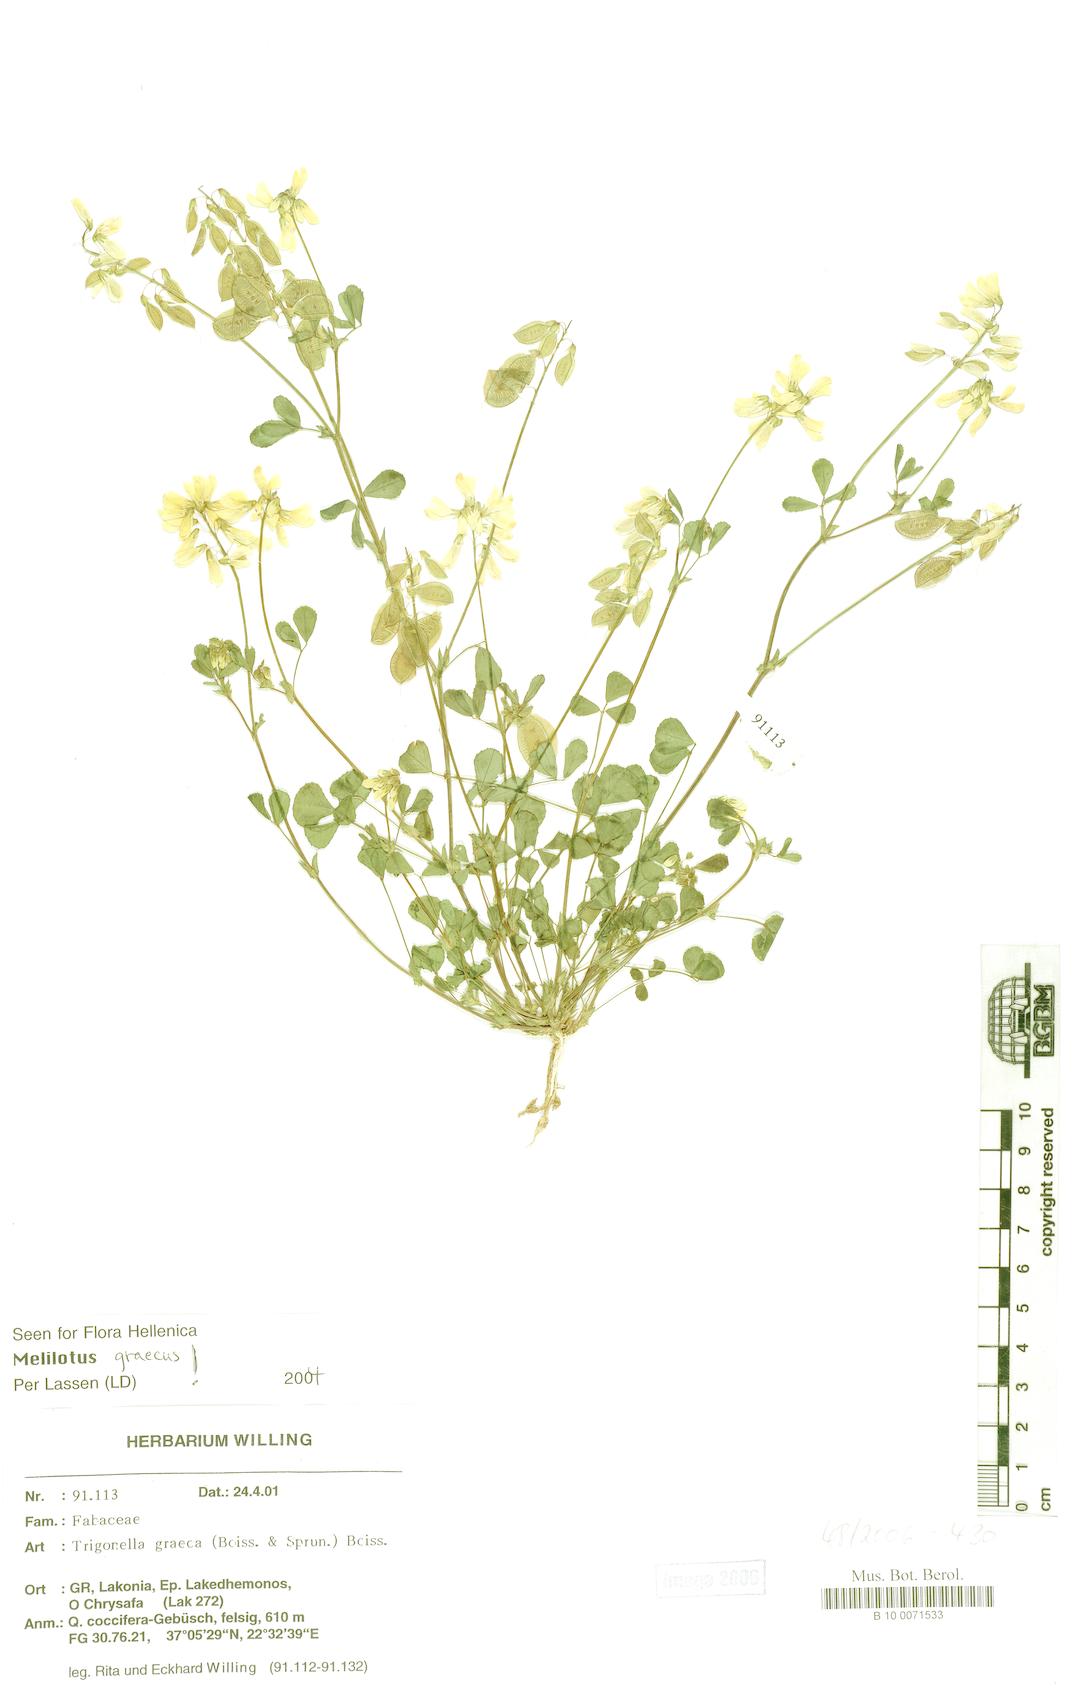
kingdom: Plantae
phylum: Tracheophyta
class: Magnoliopsida
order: Fabales
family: Fabaceae
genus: Trigonella
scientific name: Trigonella graeca
